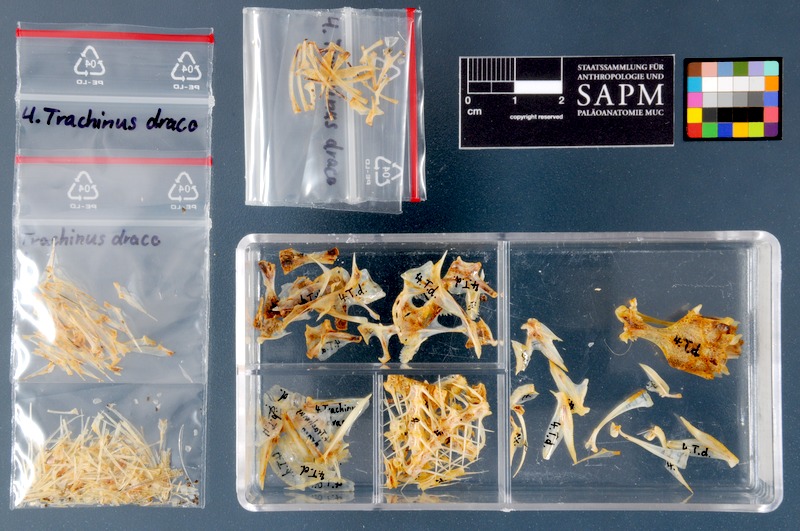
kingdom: Animalia
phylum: Chordata
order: Perciformes
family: Trachinidae
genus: Trachinus
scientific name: Trachinus draco
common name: Greater weever
